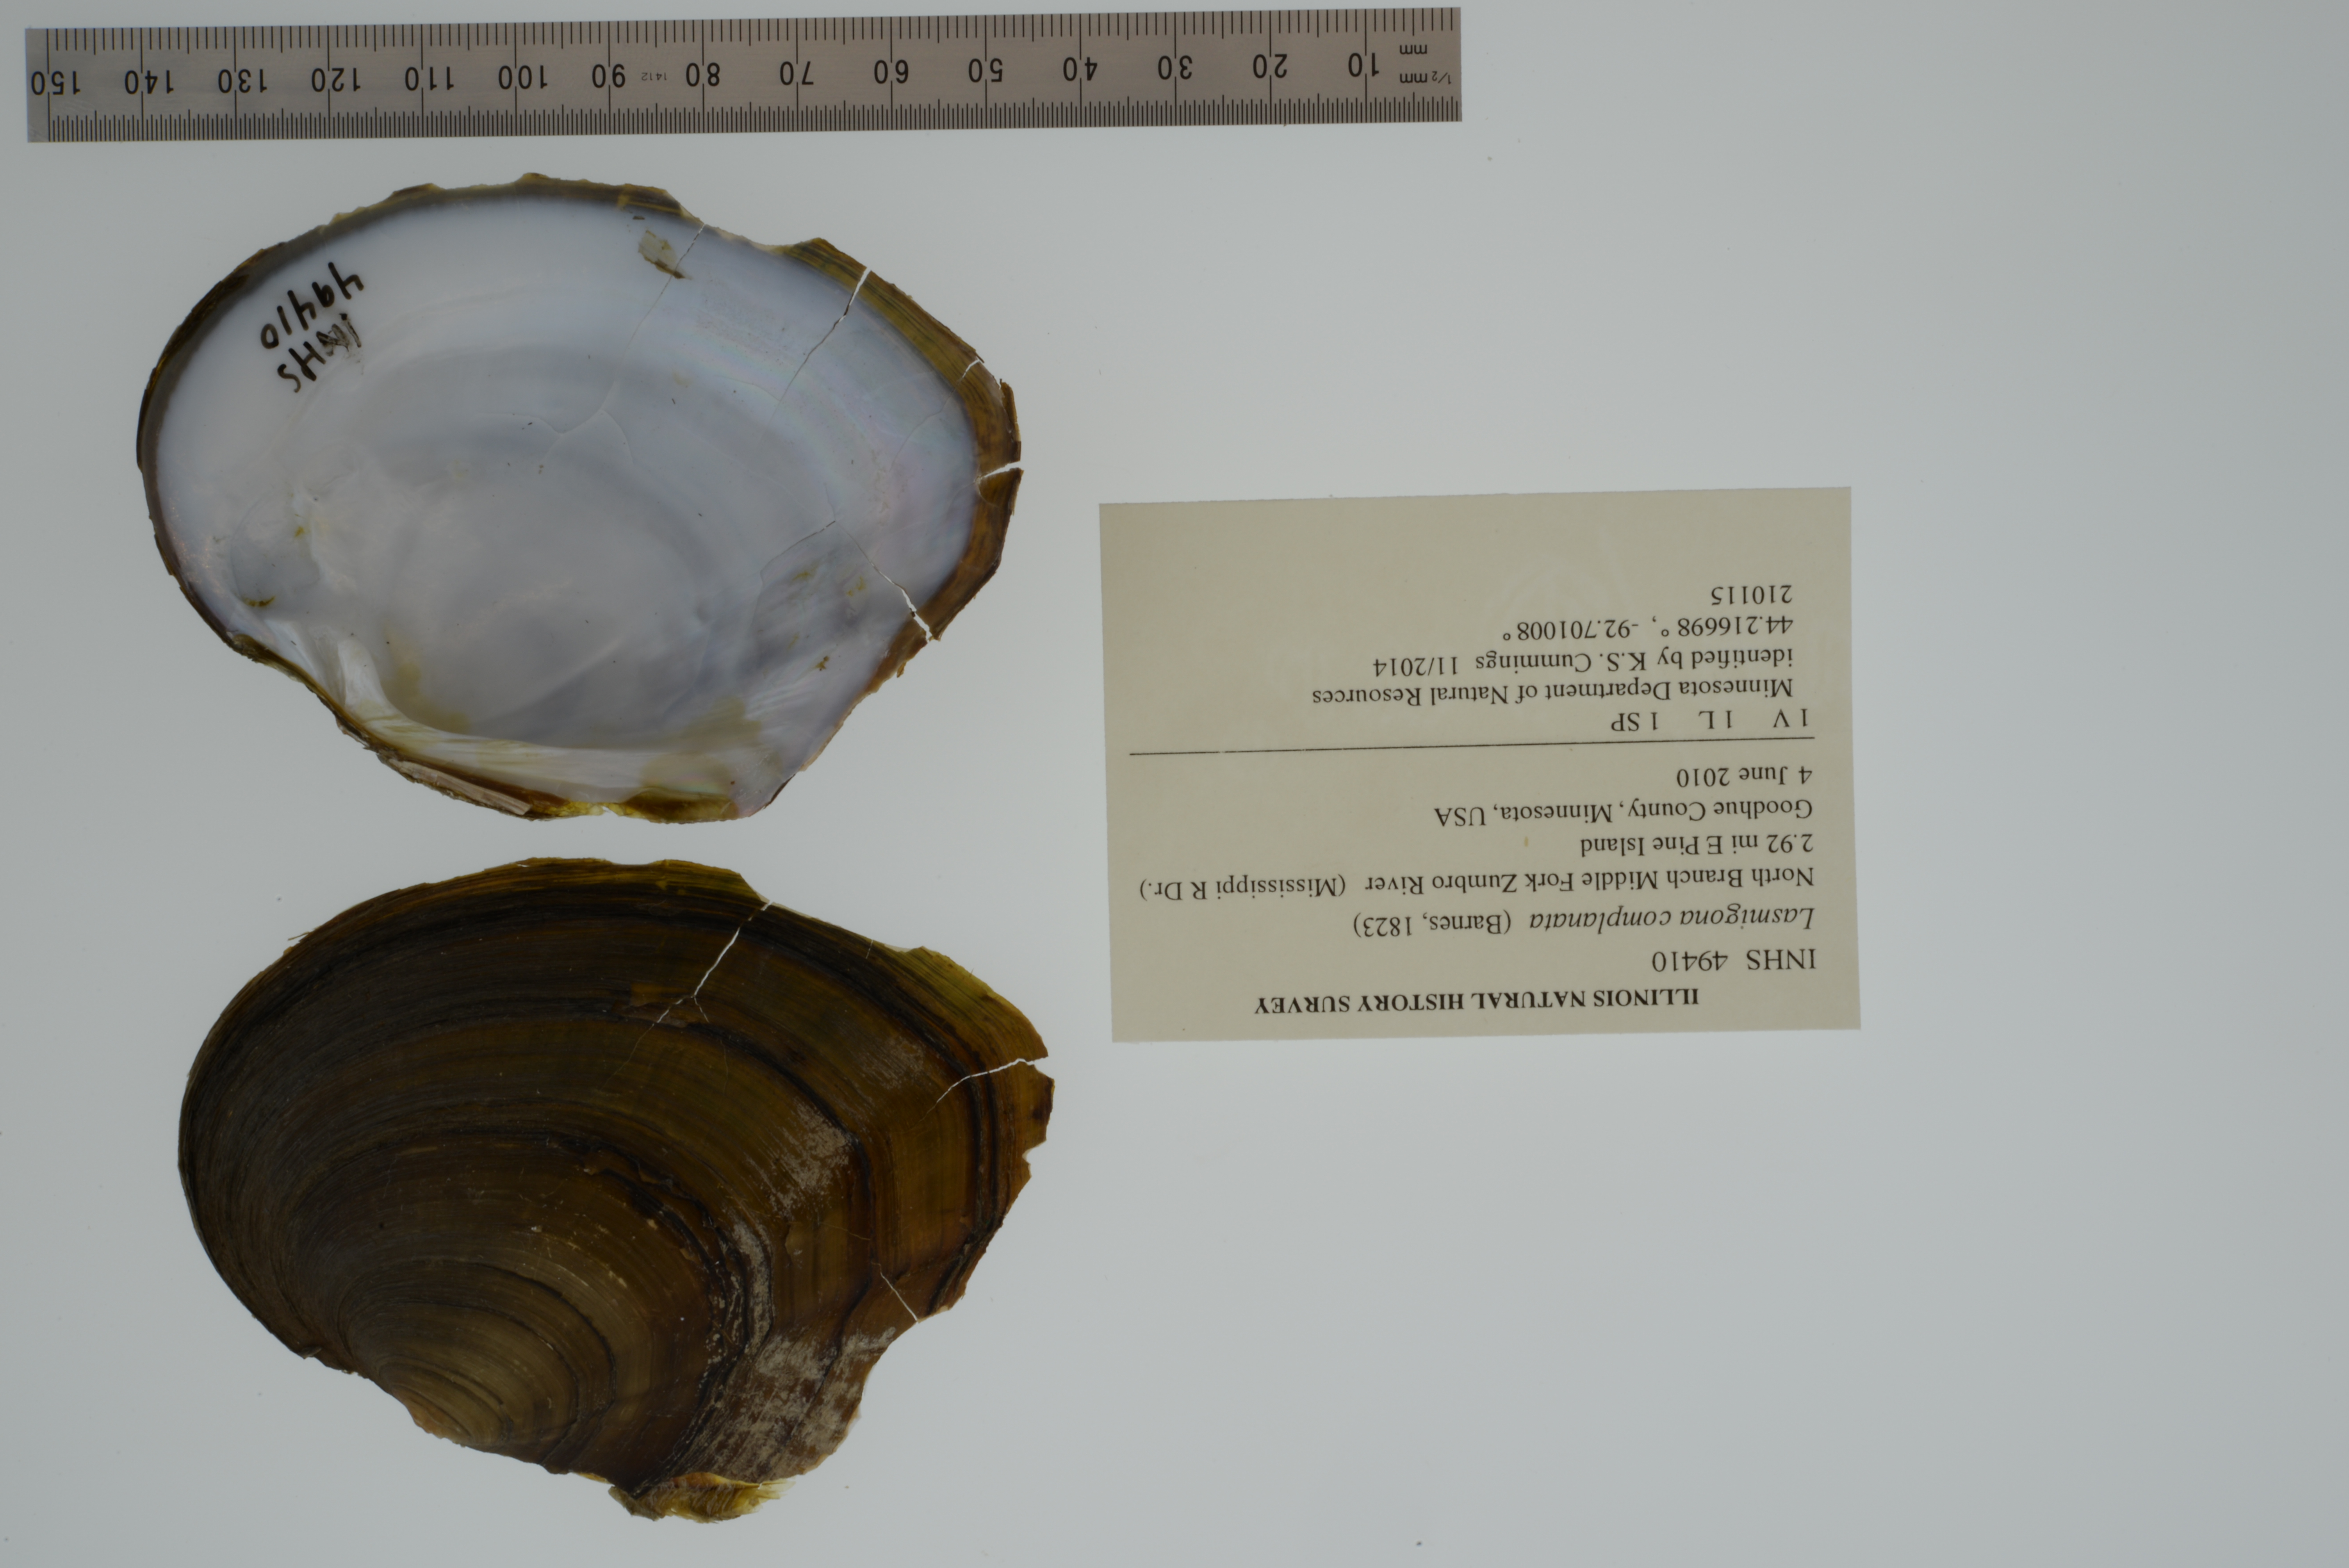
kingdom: Animalia
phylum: Mollusca
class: Bivalvia
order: Unionida
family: Unionidae
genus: Lasmigona
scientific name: Lasmigona complanata
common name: White heelsplitter
